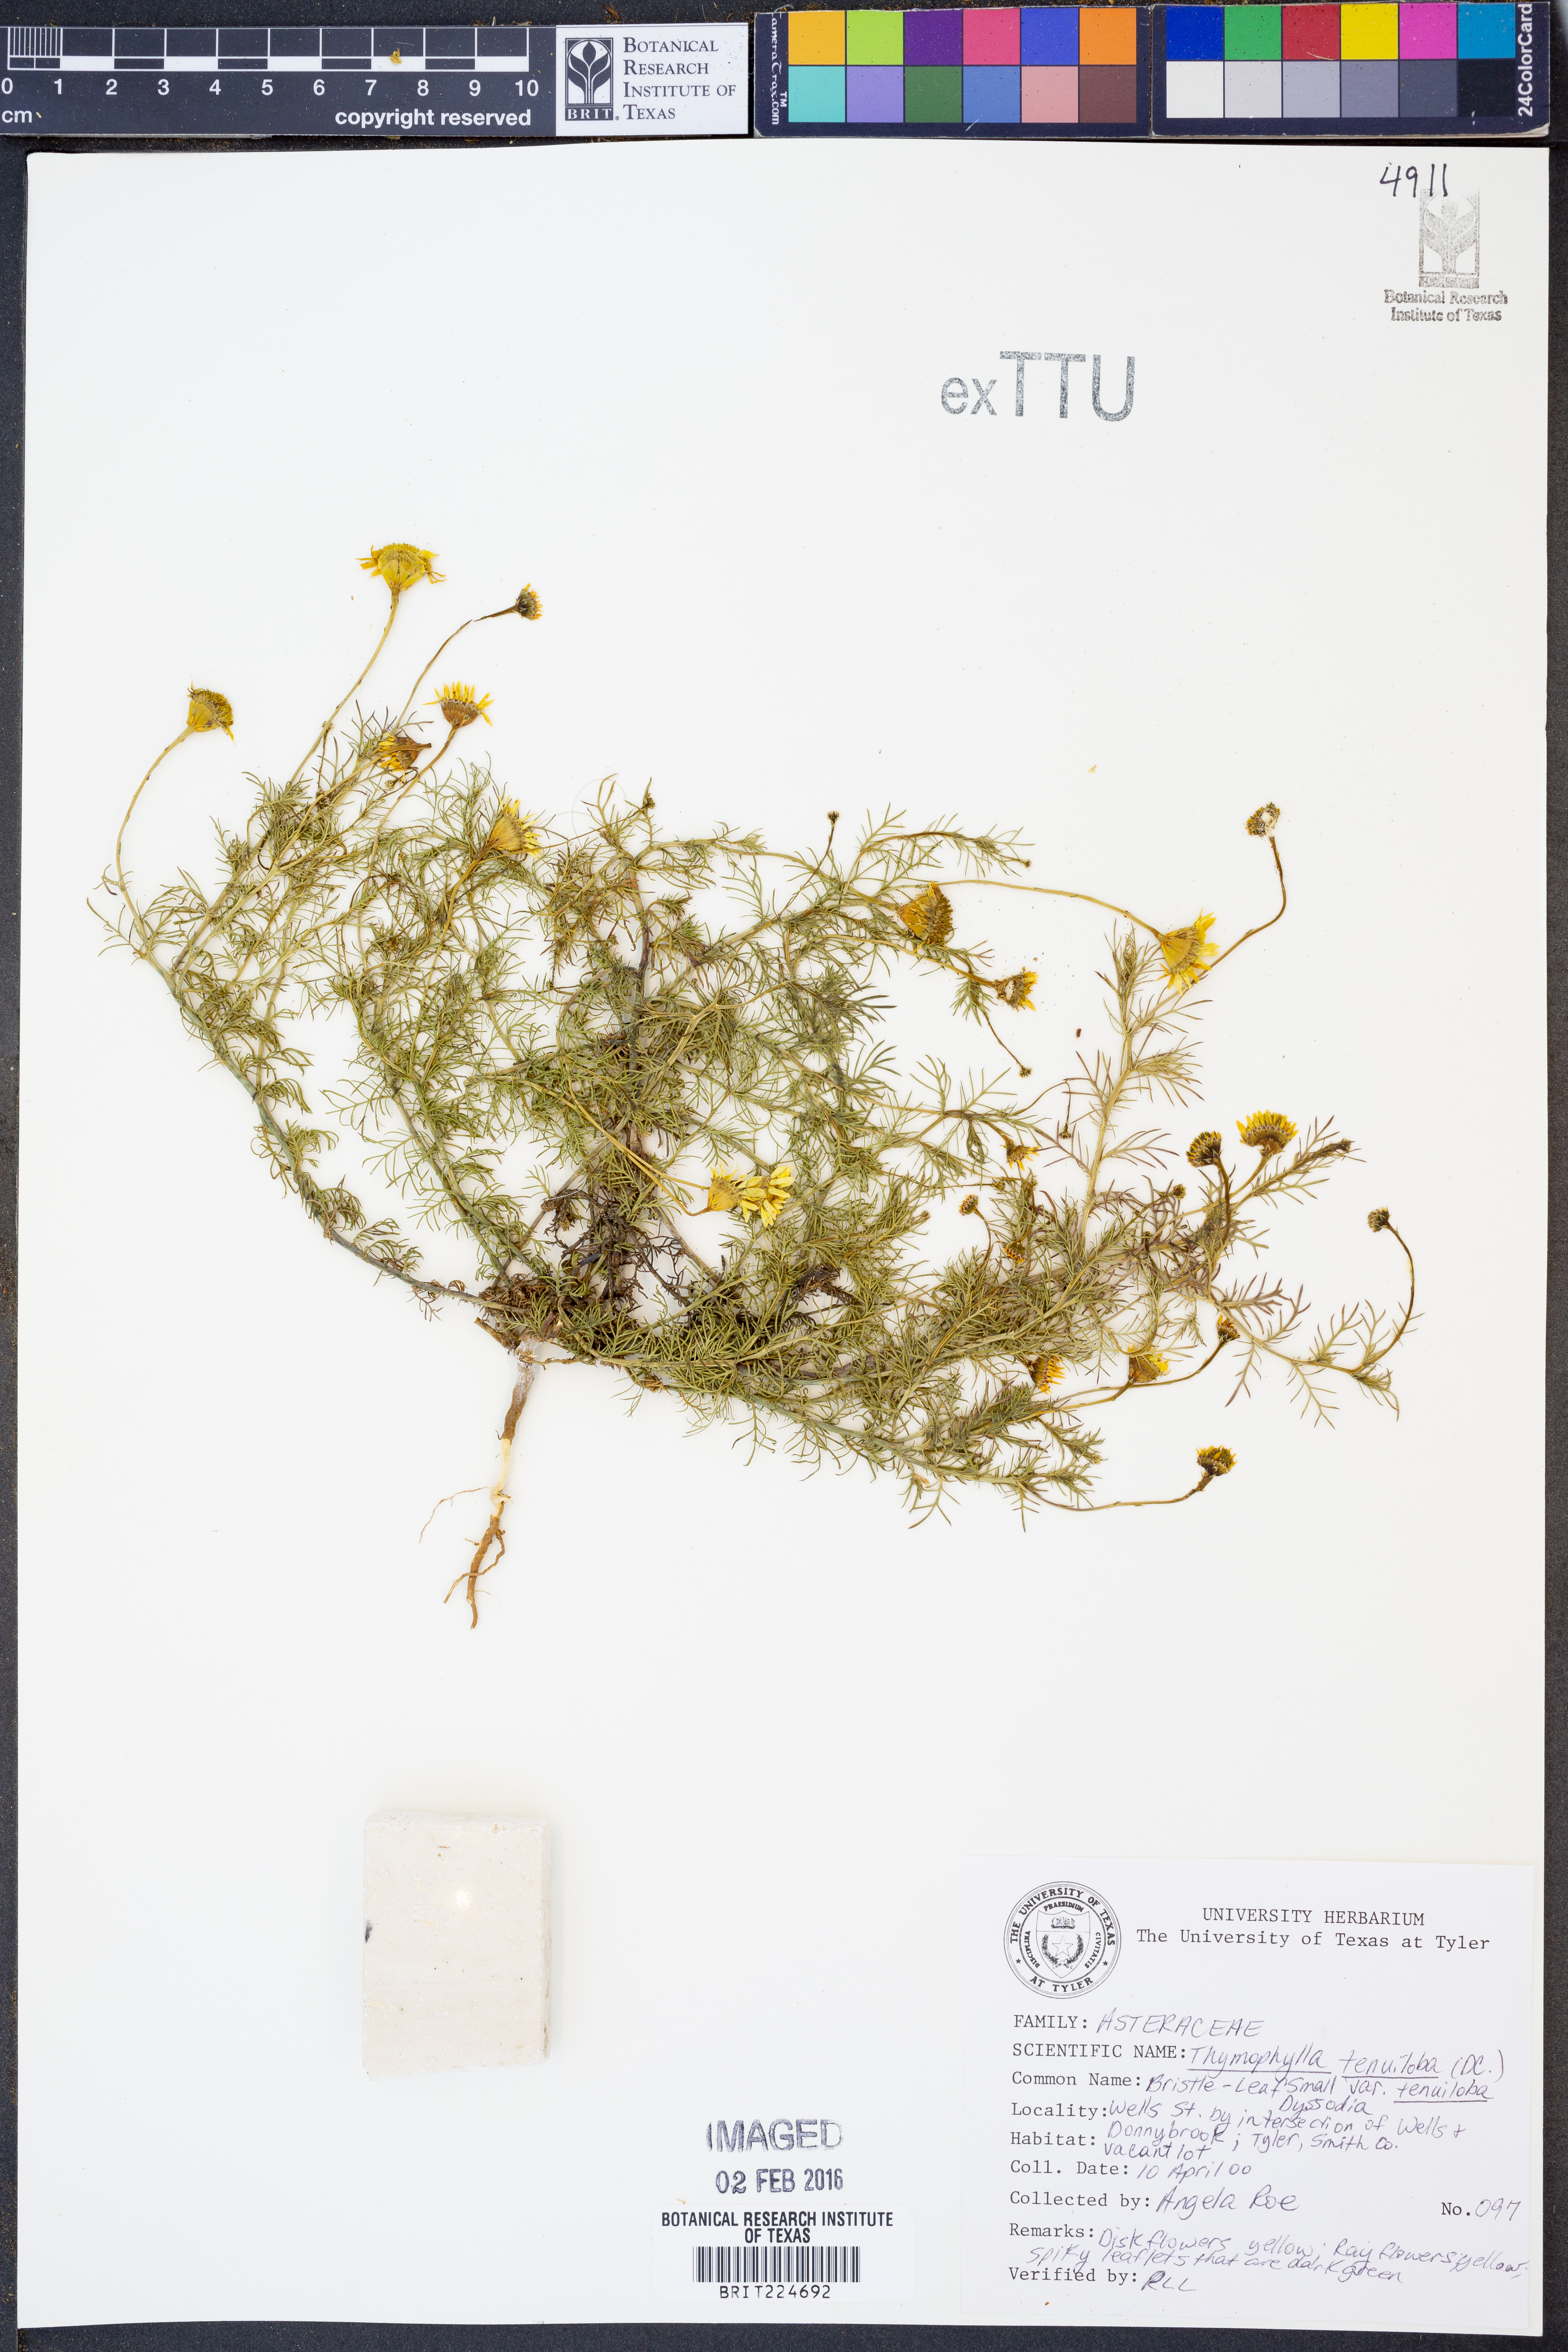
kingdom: Plantae
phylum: Tracheophyta
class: Magnoliopsida
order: Asterales
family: Asteraceae
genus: Thymophylla
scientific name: Thymophylla tenuiloba
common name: Dahlberg's daisy
